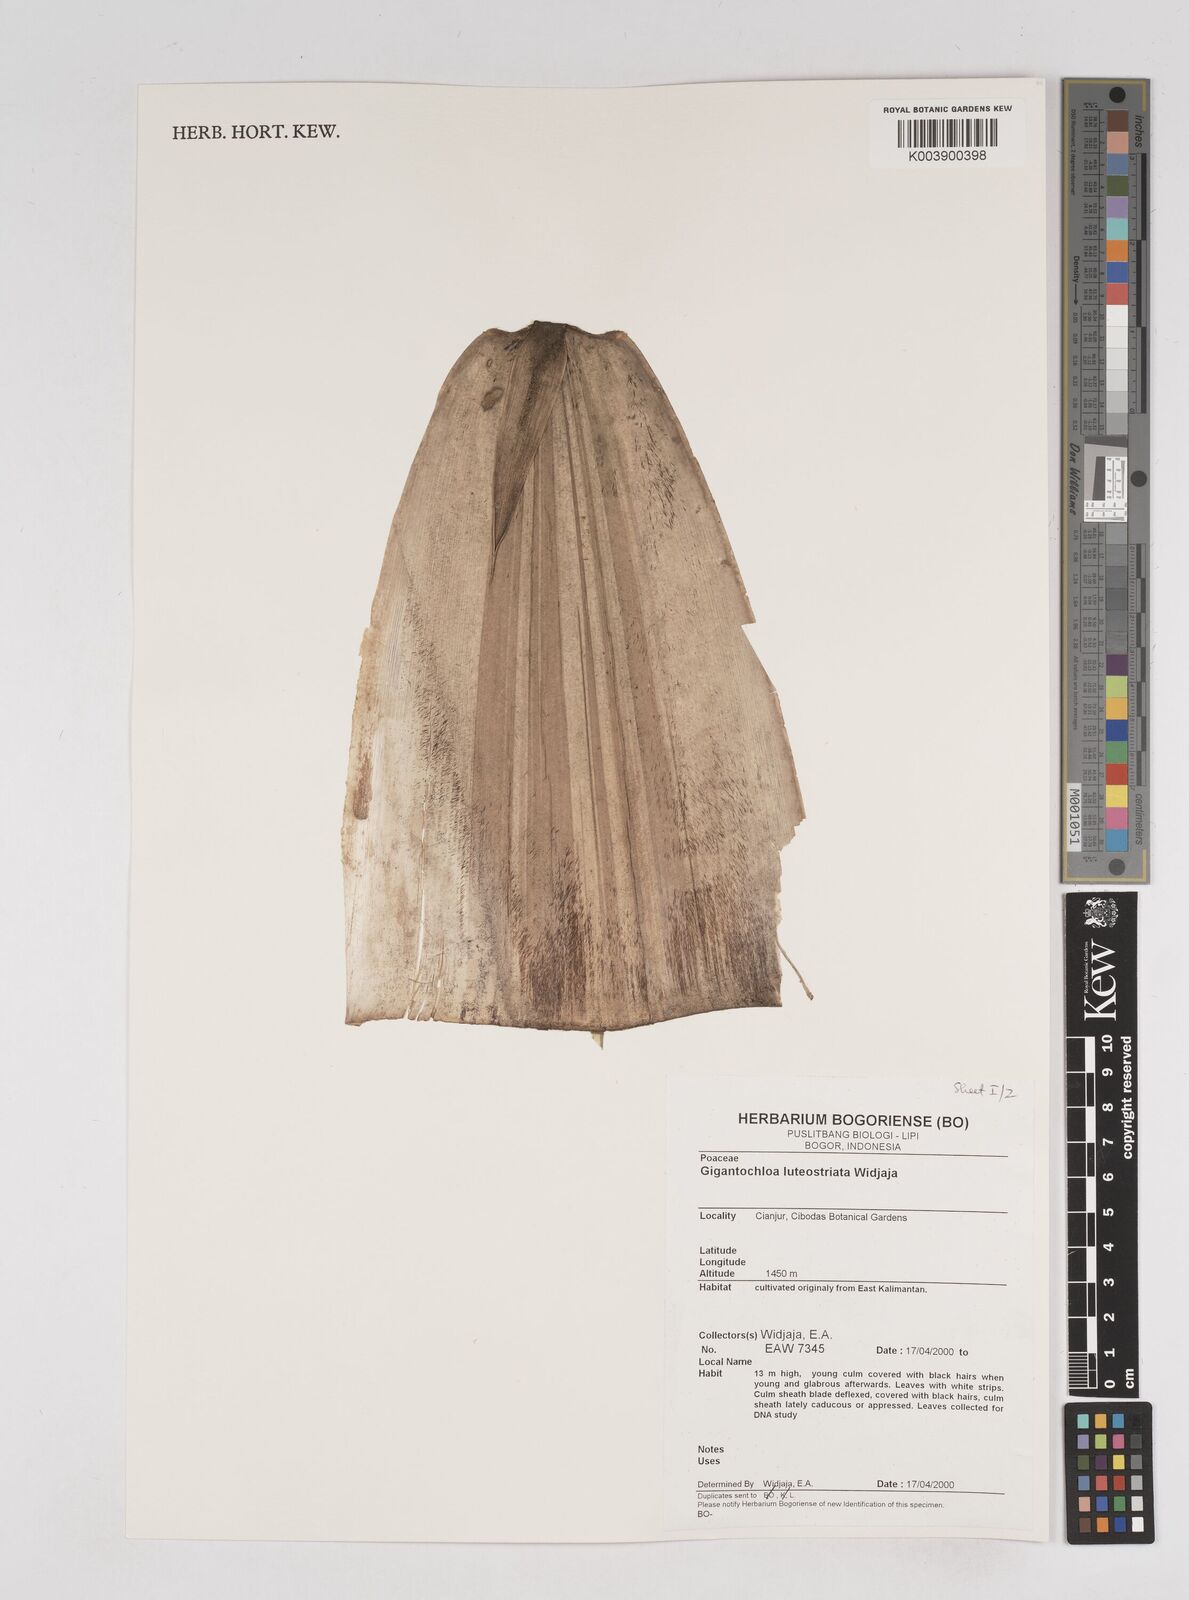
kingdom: Plantae
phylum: Tracheophyta
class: Liliopsida
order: Poales
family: Poaceae
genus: Gigantochloa
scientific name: Gigantochloa luteostriata
